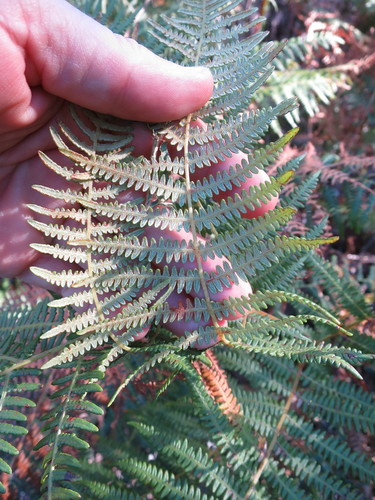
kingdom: Plantae
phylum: Tracheophyta
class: Polypodiopsida
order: Polypodiales
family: Dennstaedtiaceae
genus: Pteridium
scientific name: Pteridium aquilinum
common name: Bracken
